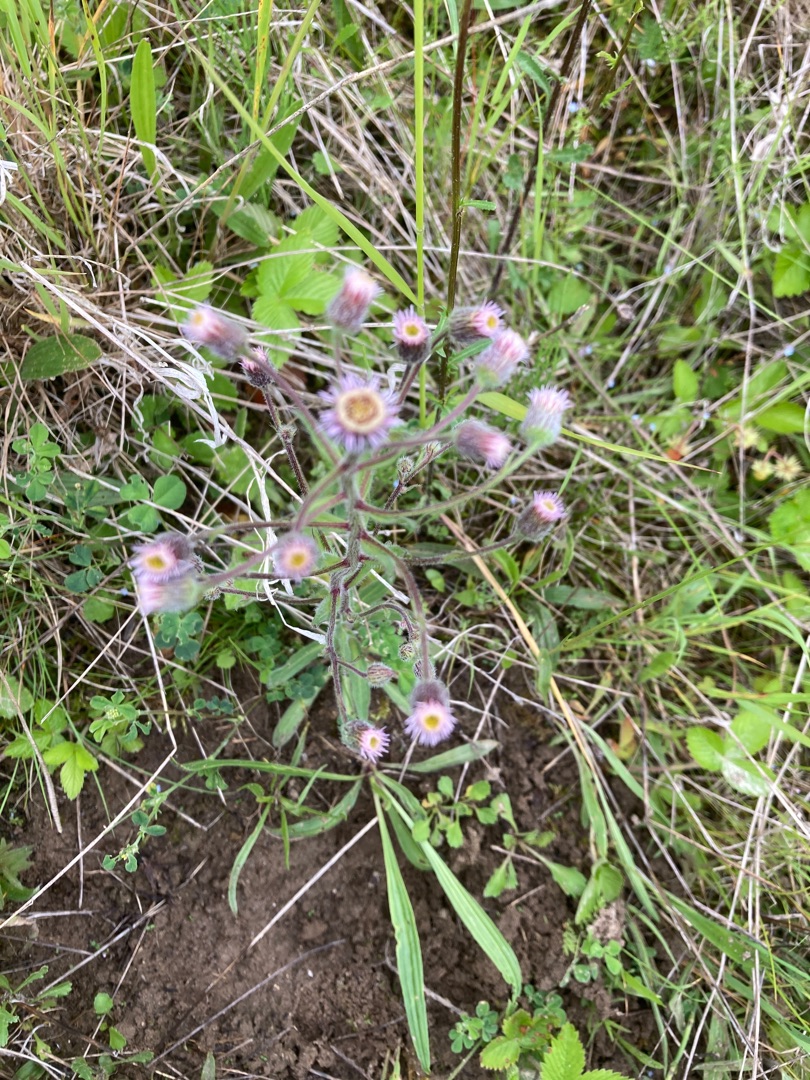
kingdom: Plantae
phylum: Tracheophyta
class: Magnoliopsida
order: Asterales
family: Asteraceae
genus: Erigeron
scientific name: Erigeron acris
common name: Bitter bakkestjerne
